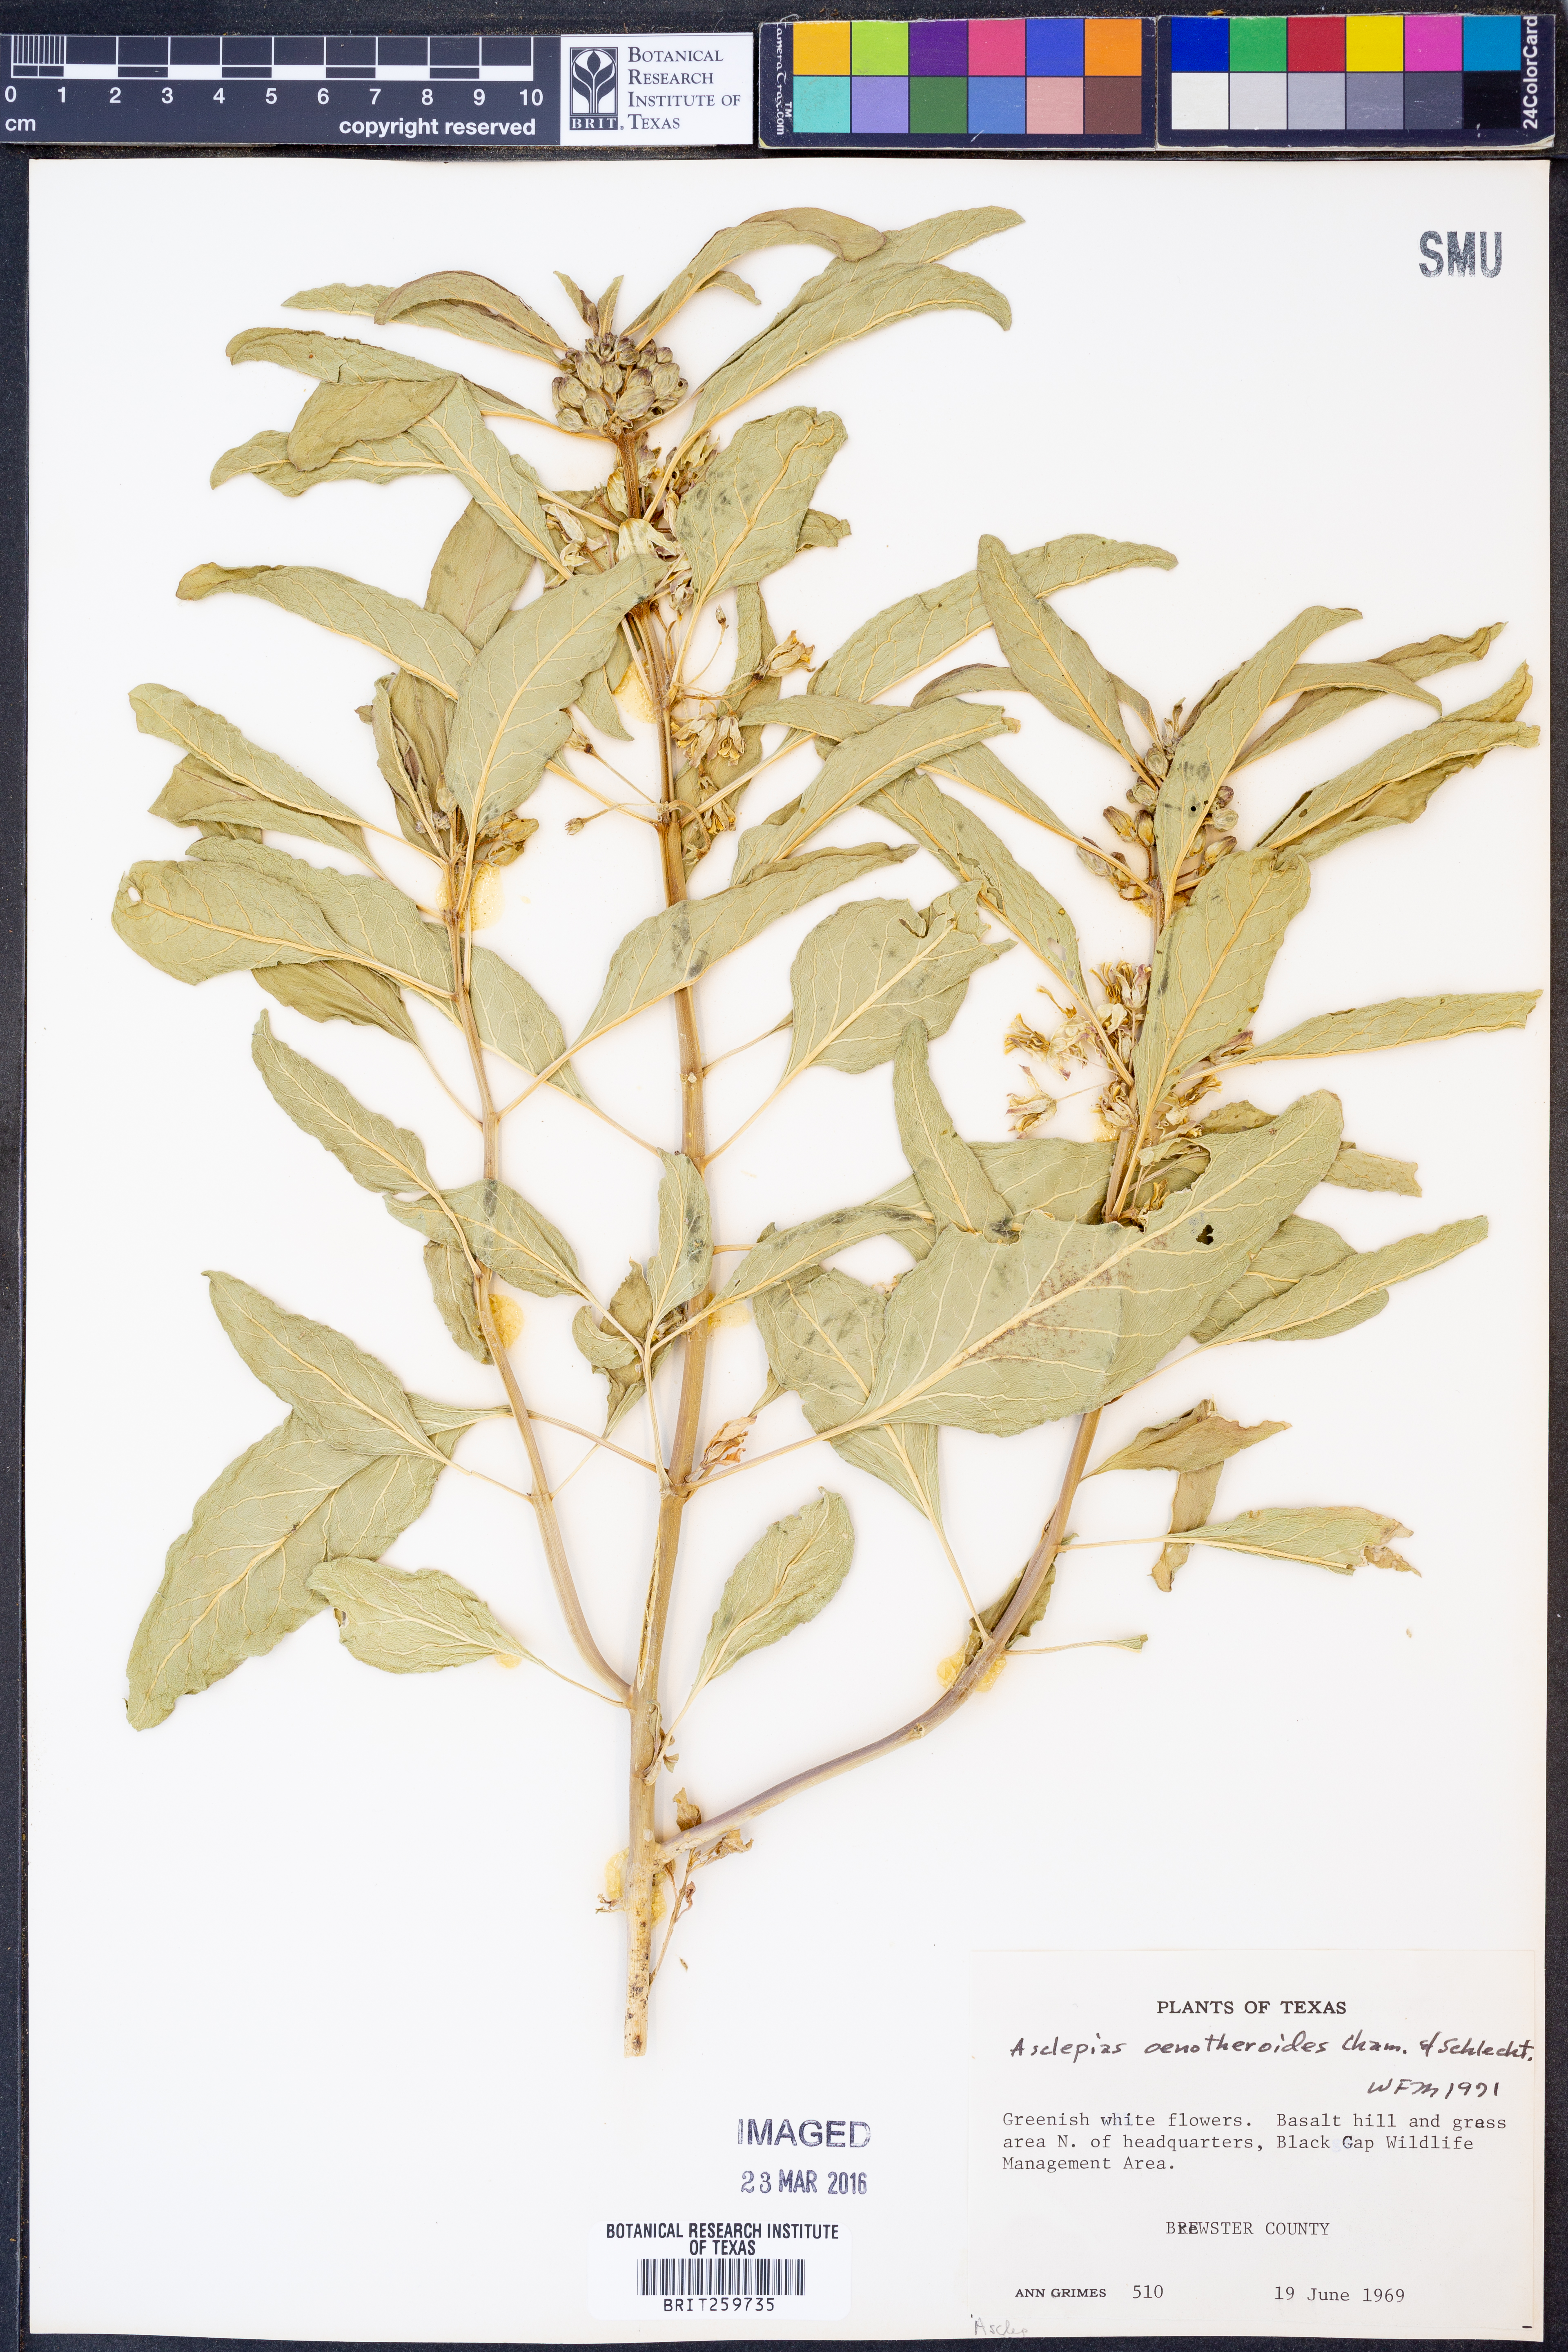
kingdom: Plantae
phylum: Tracheophyta
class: Magnoliopsida
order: Gentianales
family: Apocynaceae
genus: Asclepias
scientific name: Asclepias oenotheroides
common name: Zizotes milkweed
